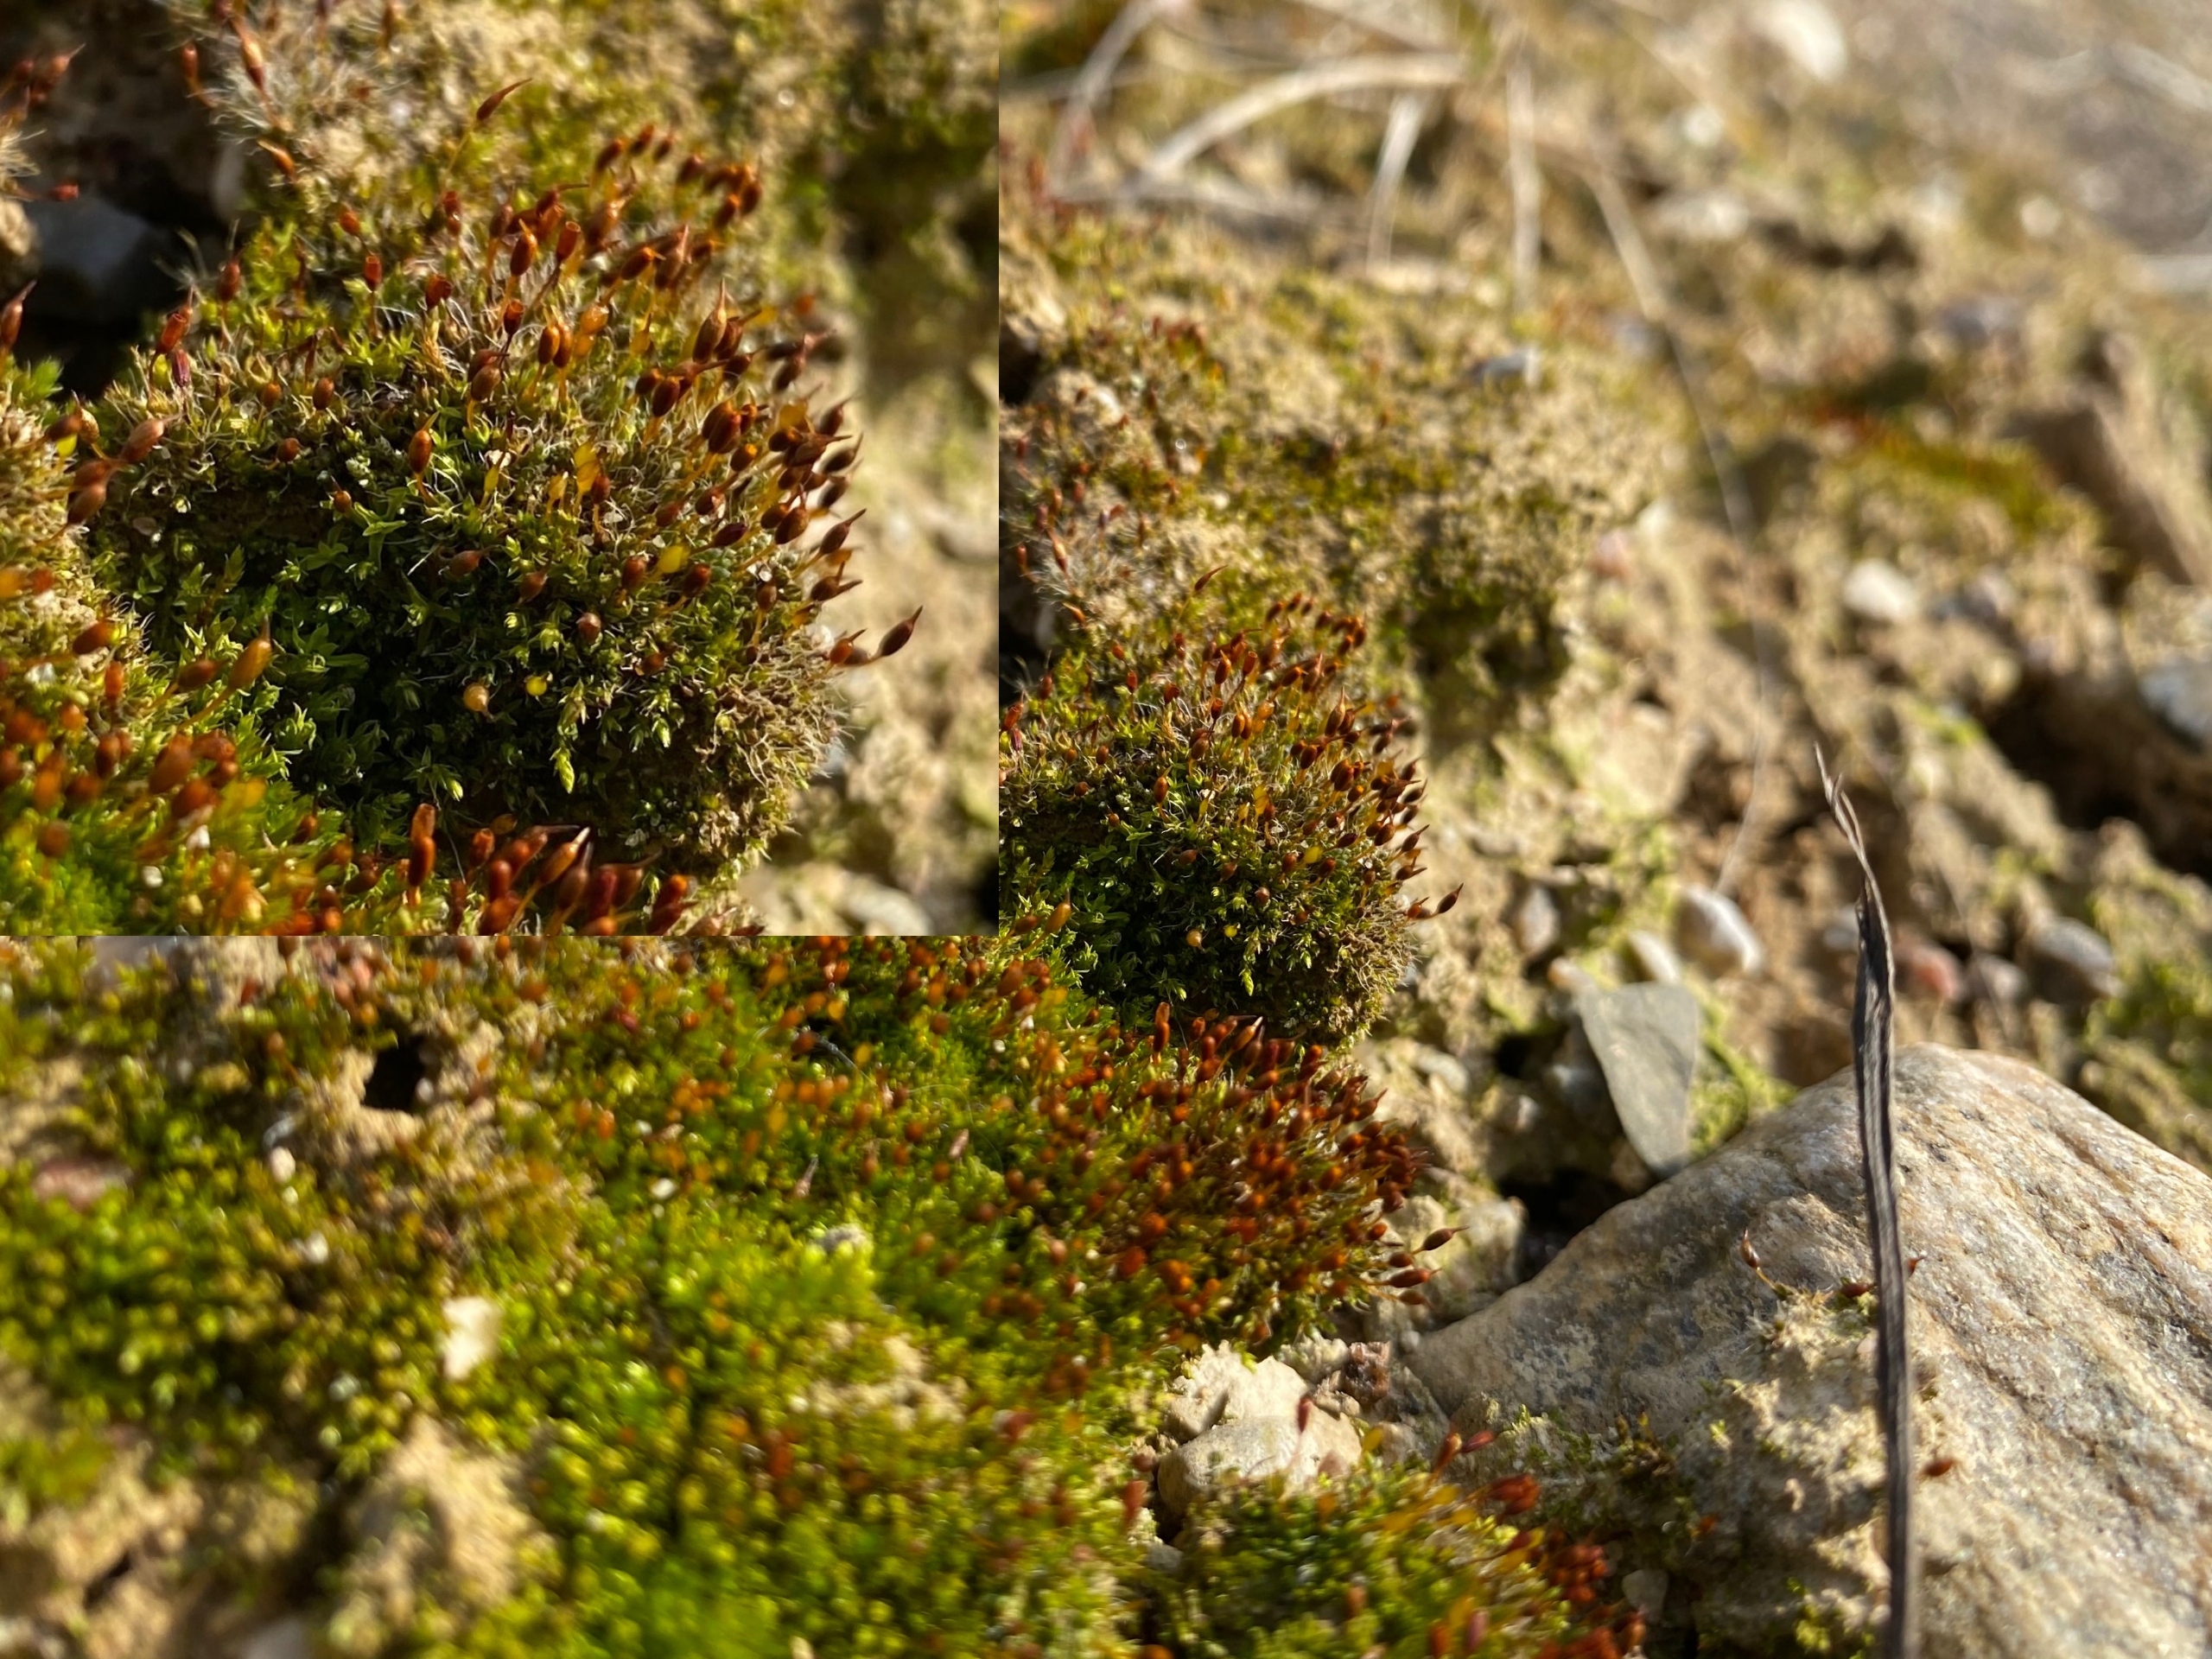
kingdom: Plantae
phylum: Bryophyta
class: Bryopsida
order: Pottiales
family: Pottiaceae
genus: Pterygoneurum
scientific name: Pterygoneurum ovatum
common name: Langhåret vingenerve
